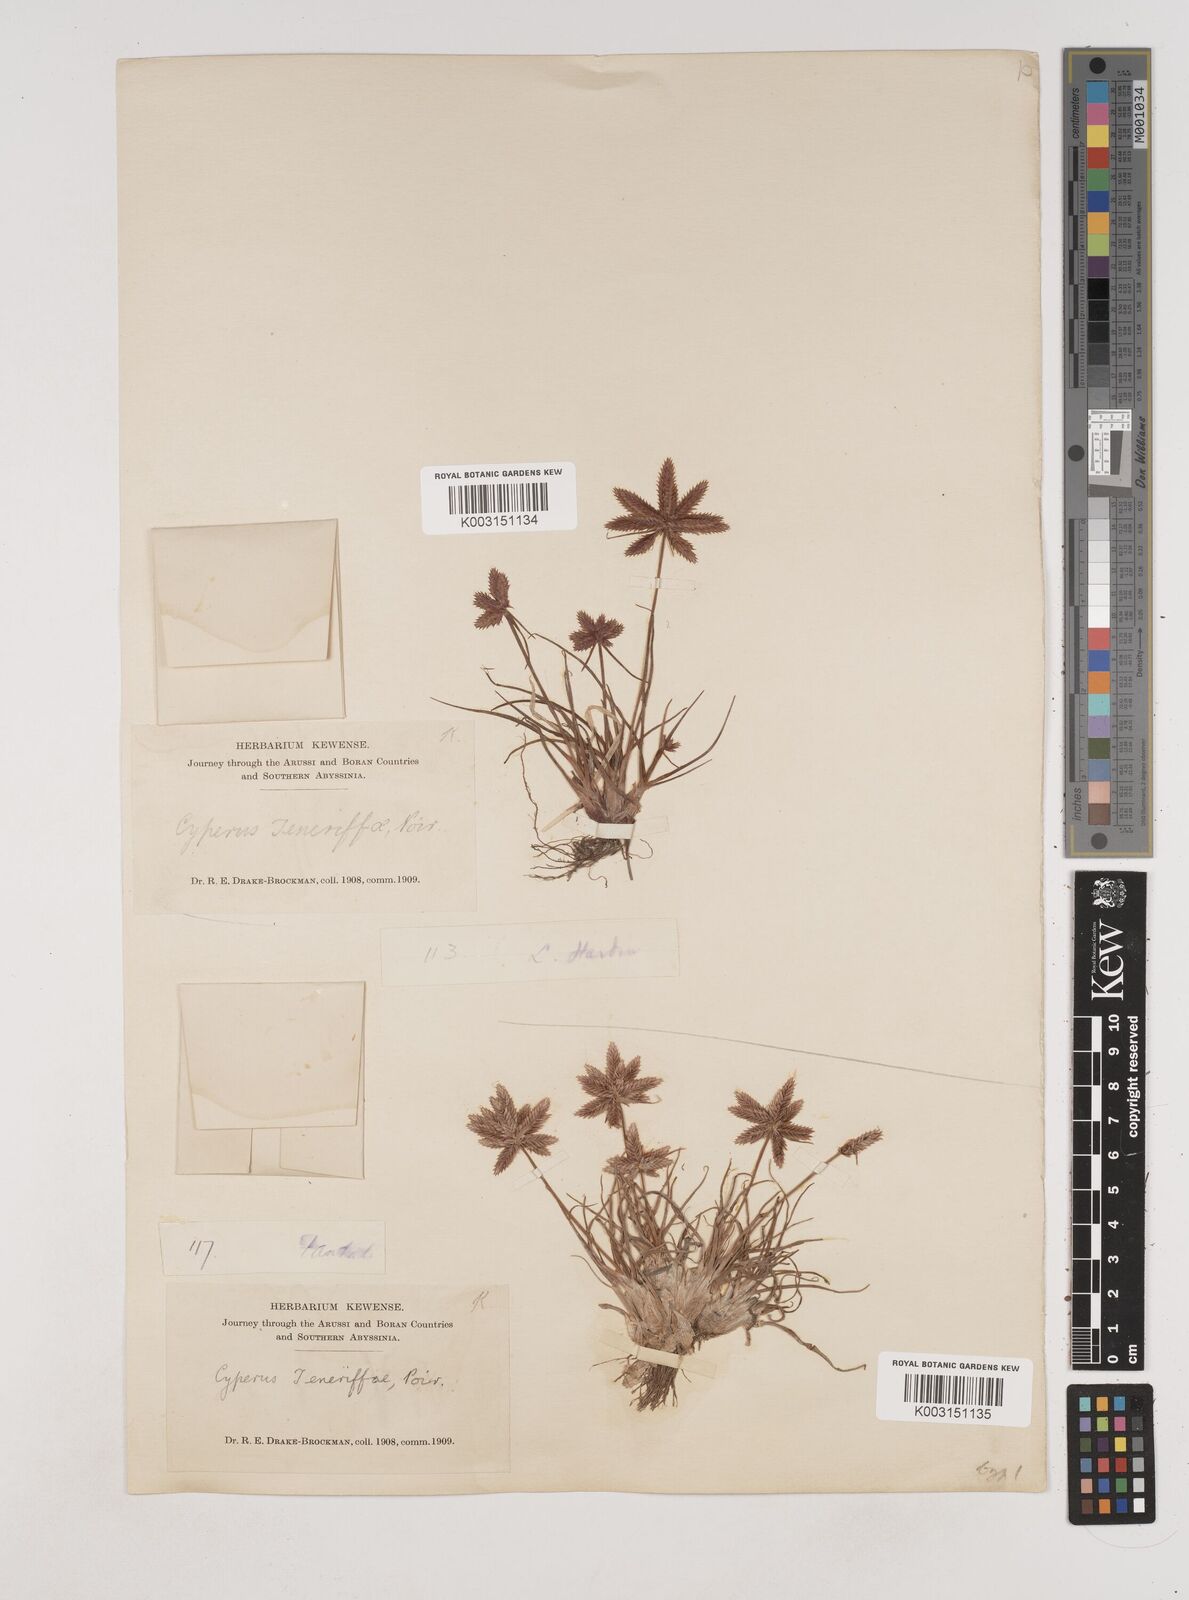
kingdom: Plantae
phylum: Tracheophyta
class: Liliopsida
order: Poales
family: Cyperaceae
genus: Cyperus
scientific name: Cyperus rubicundus
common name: Coco-grass
